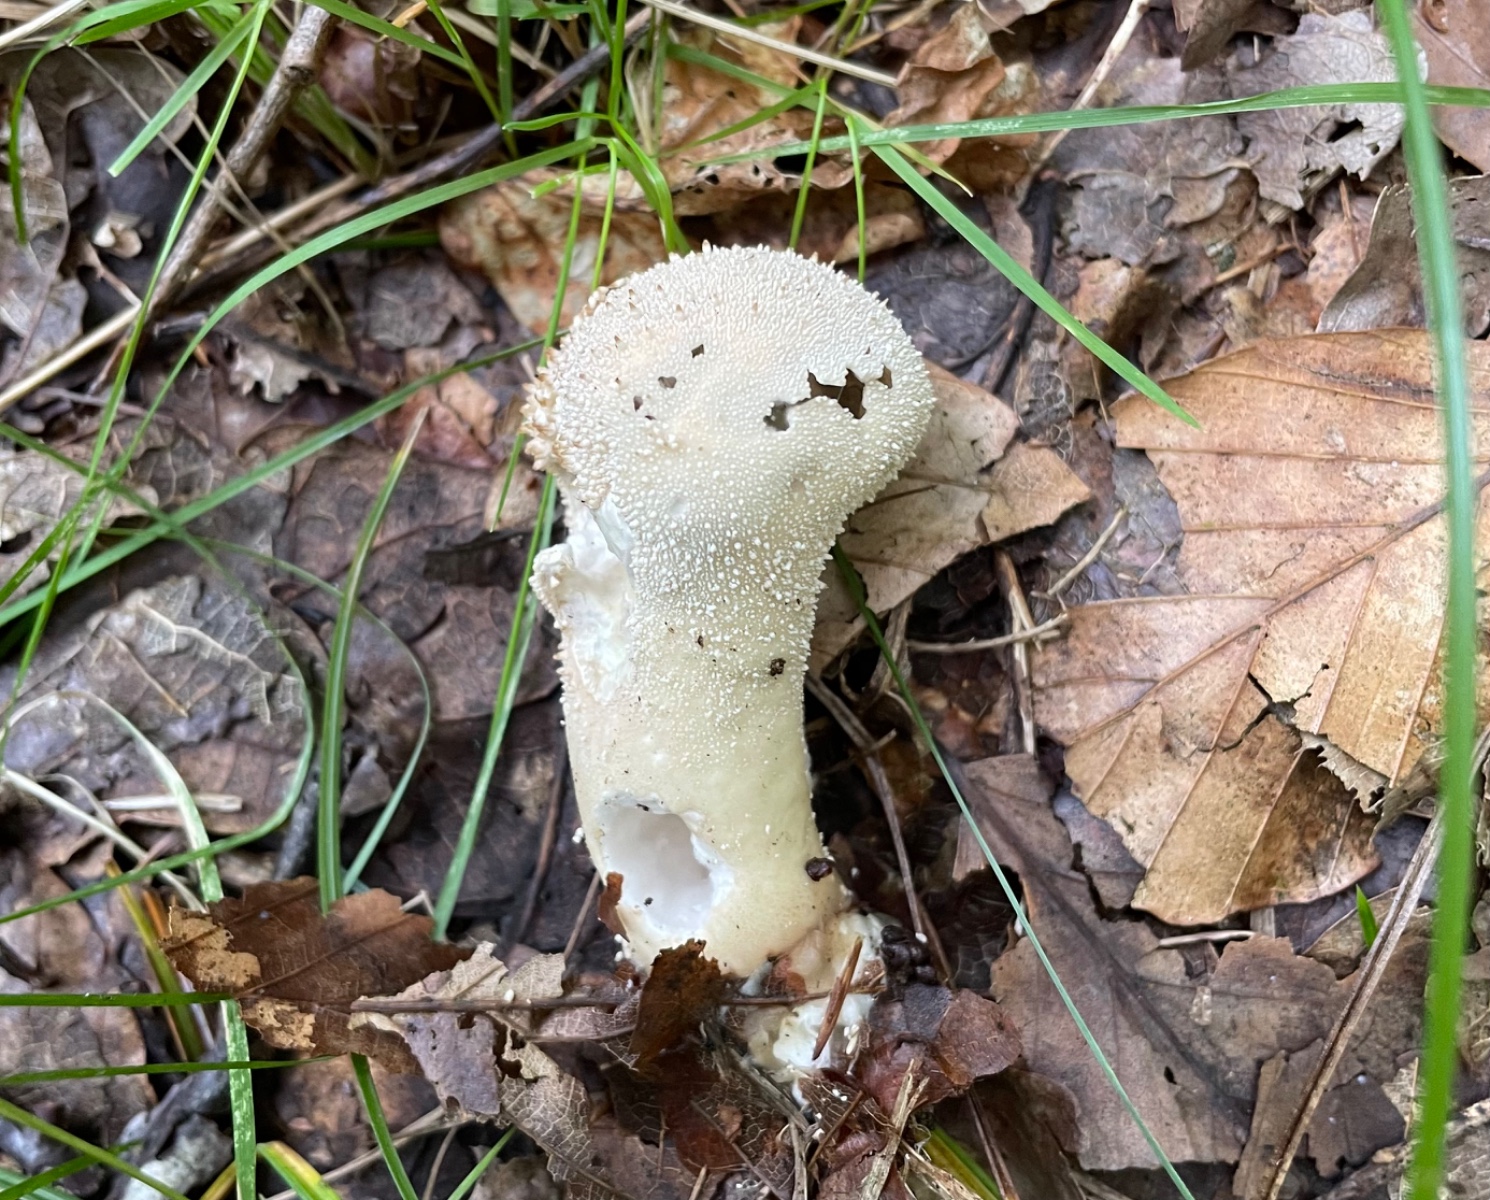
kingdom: Fungi
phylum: Basidiomycota
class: Agaricomycetes
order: Agaricales
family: Lycoperdaceae
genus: Lycoperdon
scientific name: Lycoperdon excipuliforme
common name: højstokket støvbold
